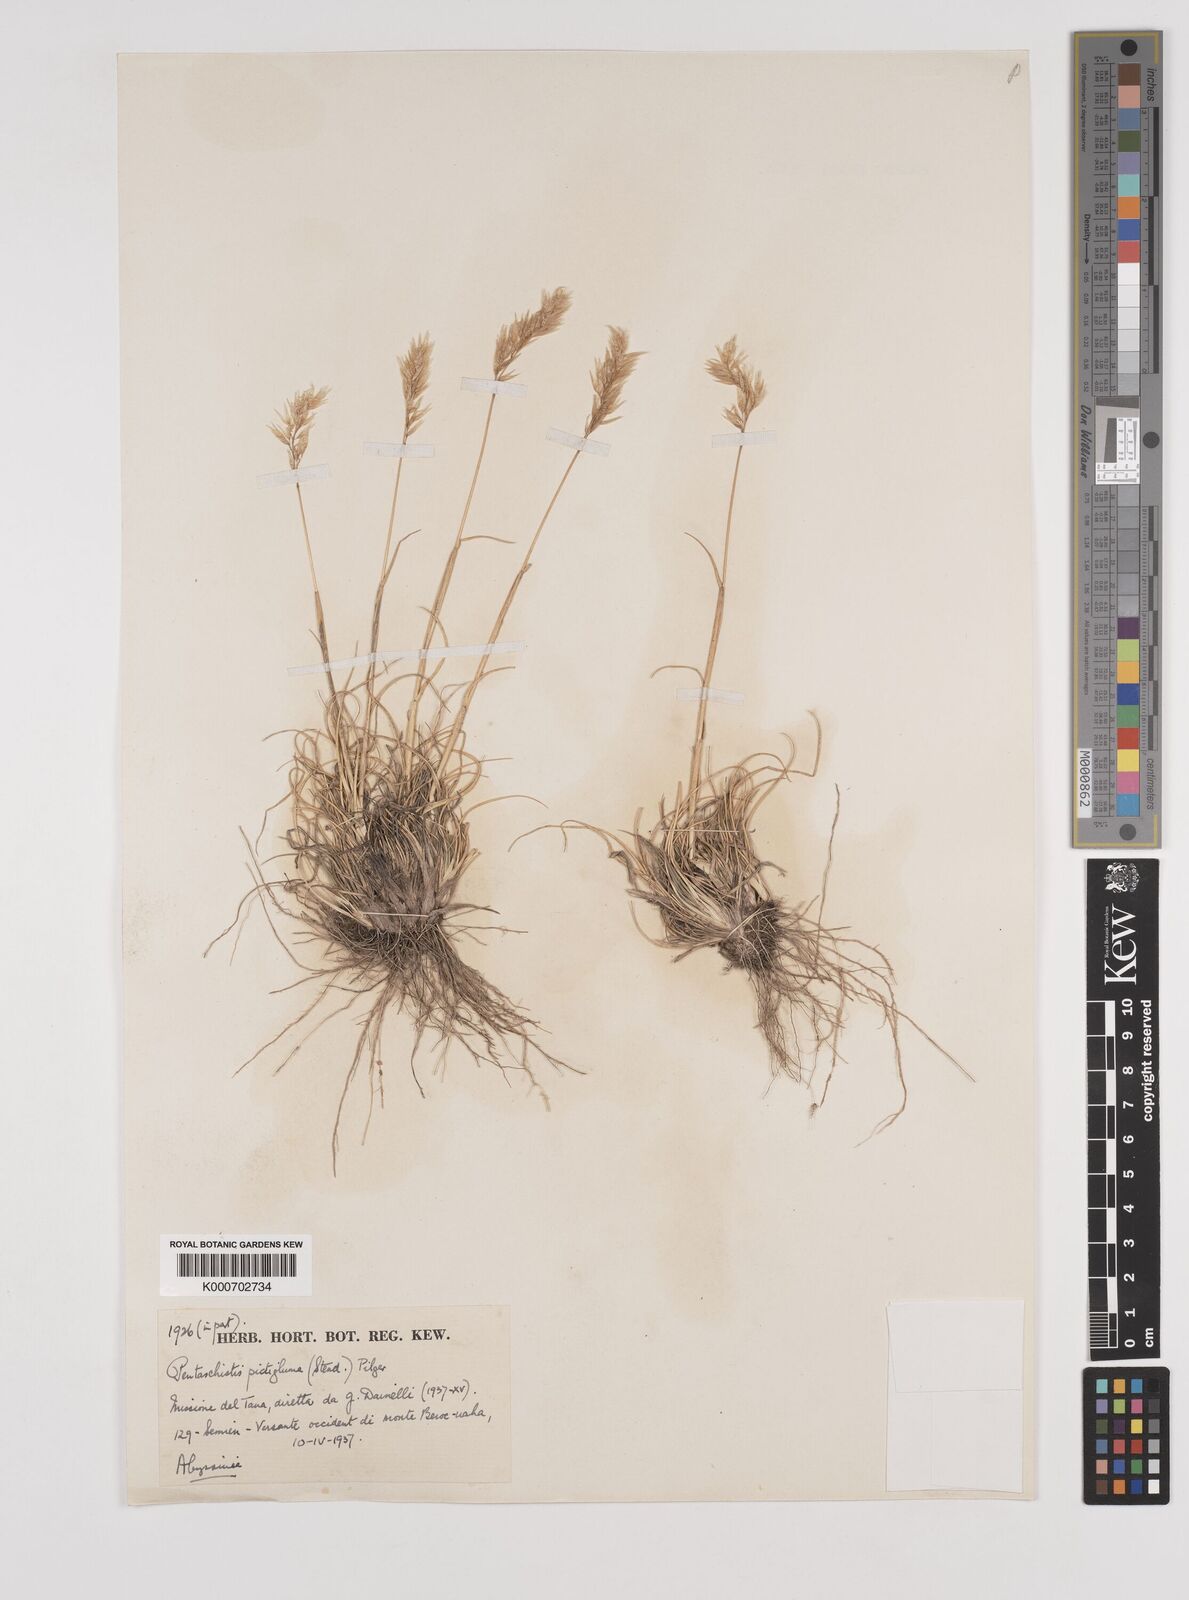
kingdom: Plantae
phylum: Tracheophyta
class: Liliopsida
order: Poales
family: Poaceae
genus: Pentameris
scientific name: Pentameris pictigluma
